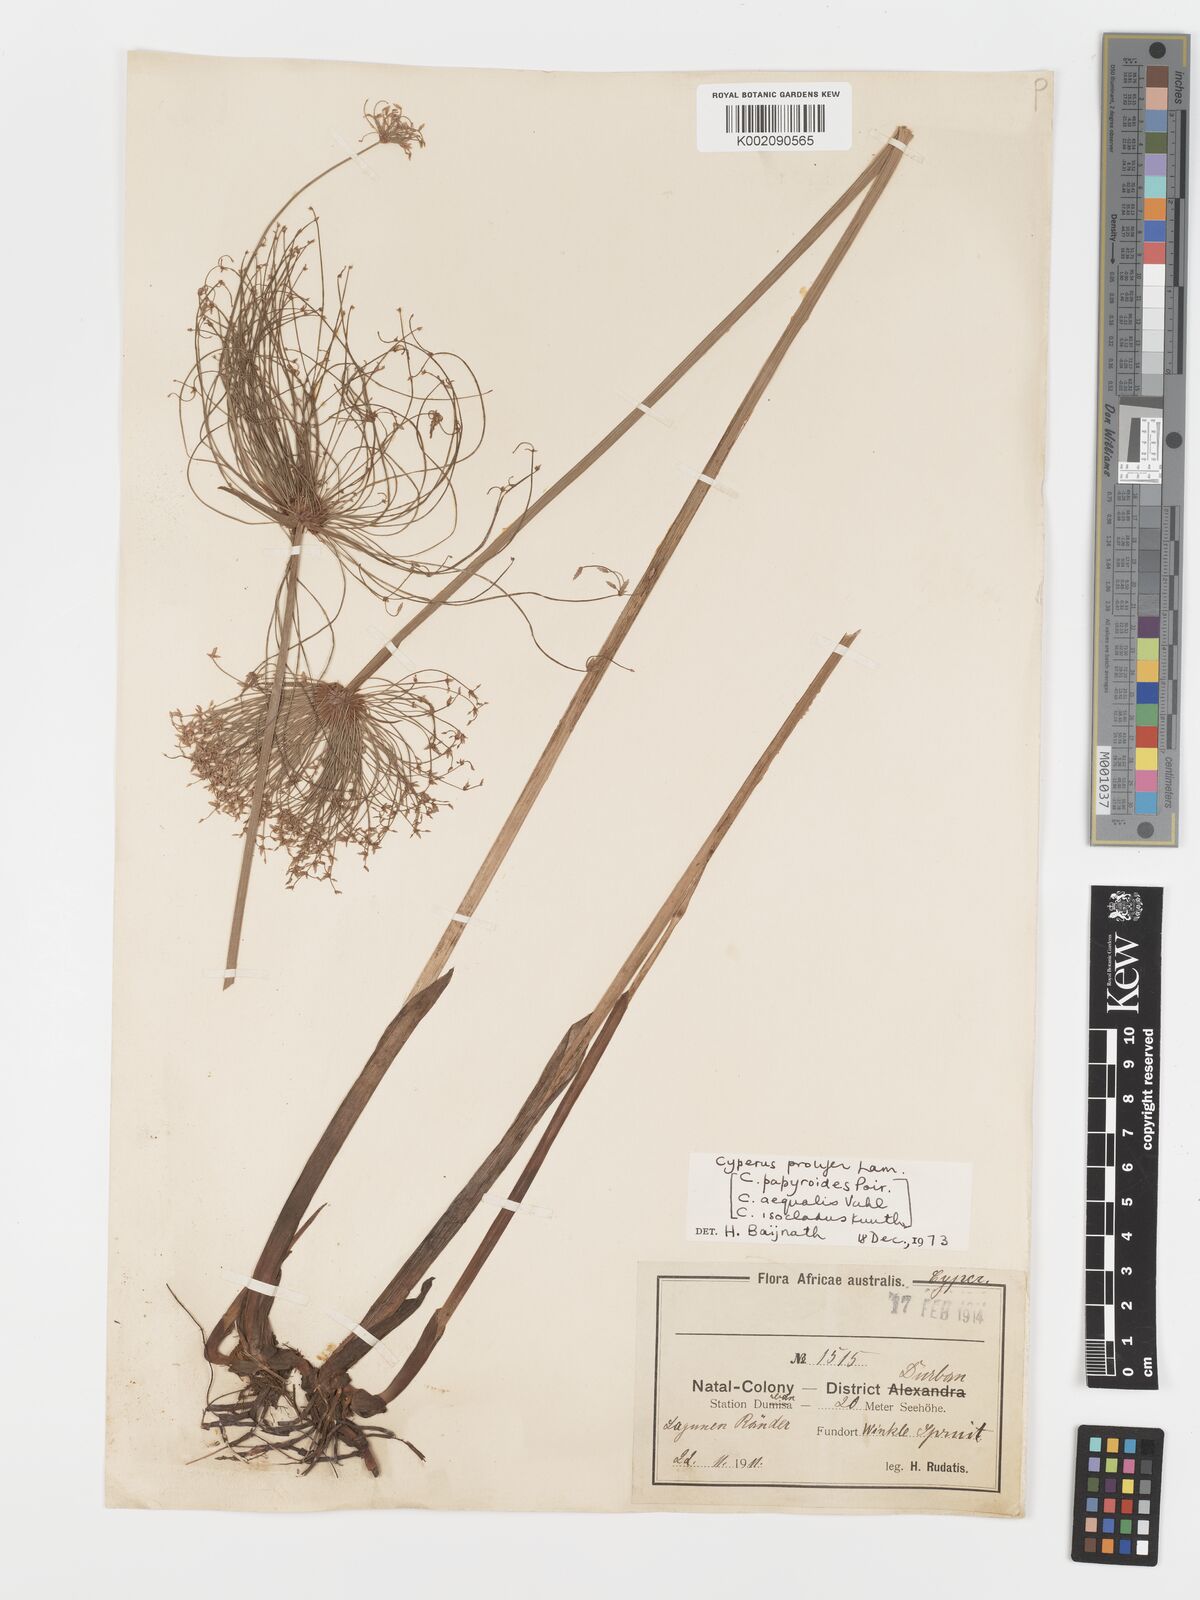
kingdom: Plantae
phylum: Tracheophyta
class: Liliopsida
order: Poales
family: Cyperaceae
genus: Cyperus
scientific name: Cyperus prolifer
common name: Miniature flatsedge
